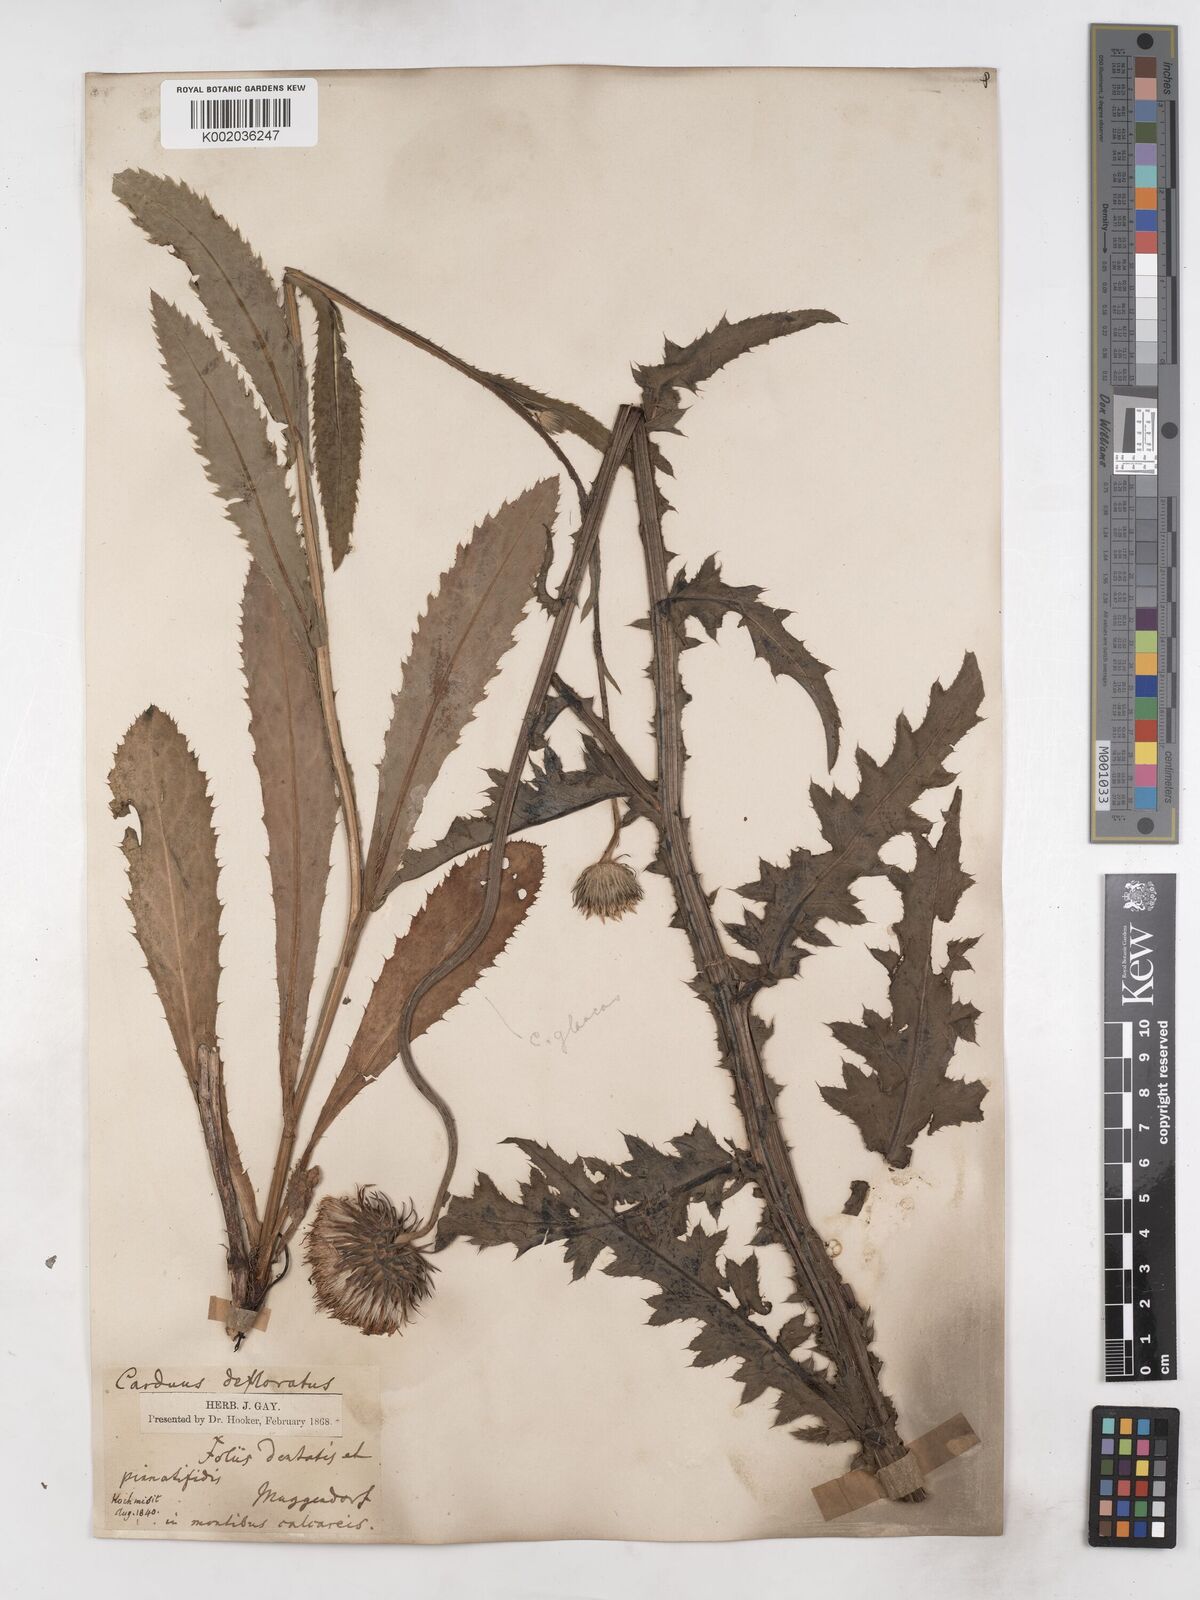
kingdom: Plantae
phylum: Tracheophyta
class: Magnoliopsida
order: Asterales
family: Asteraceae
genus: Carduus
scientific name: Carduus defloratus
